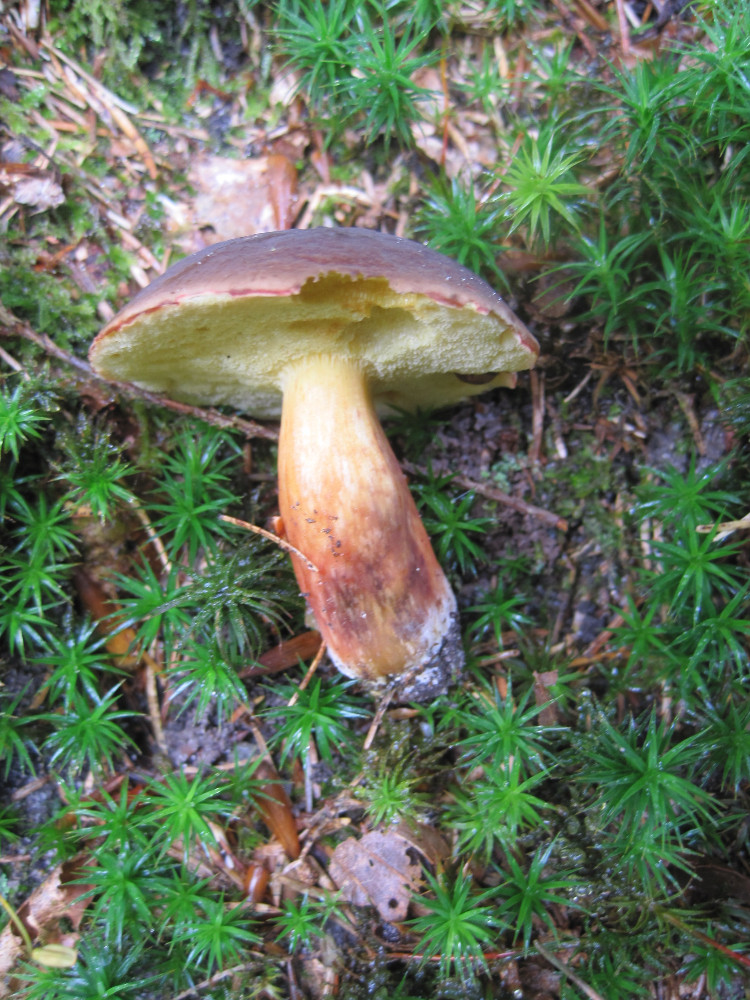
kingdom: Fungi
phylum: Basidiomycota
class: Agaricomycetes
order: Boletales
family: Boletaceae
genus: Xerocomellus
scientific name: Xerocomellus pruinatus
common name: dugget rørhat
